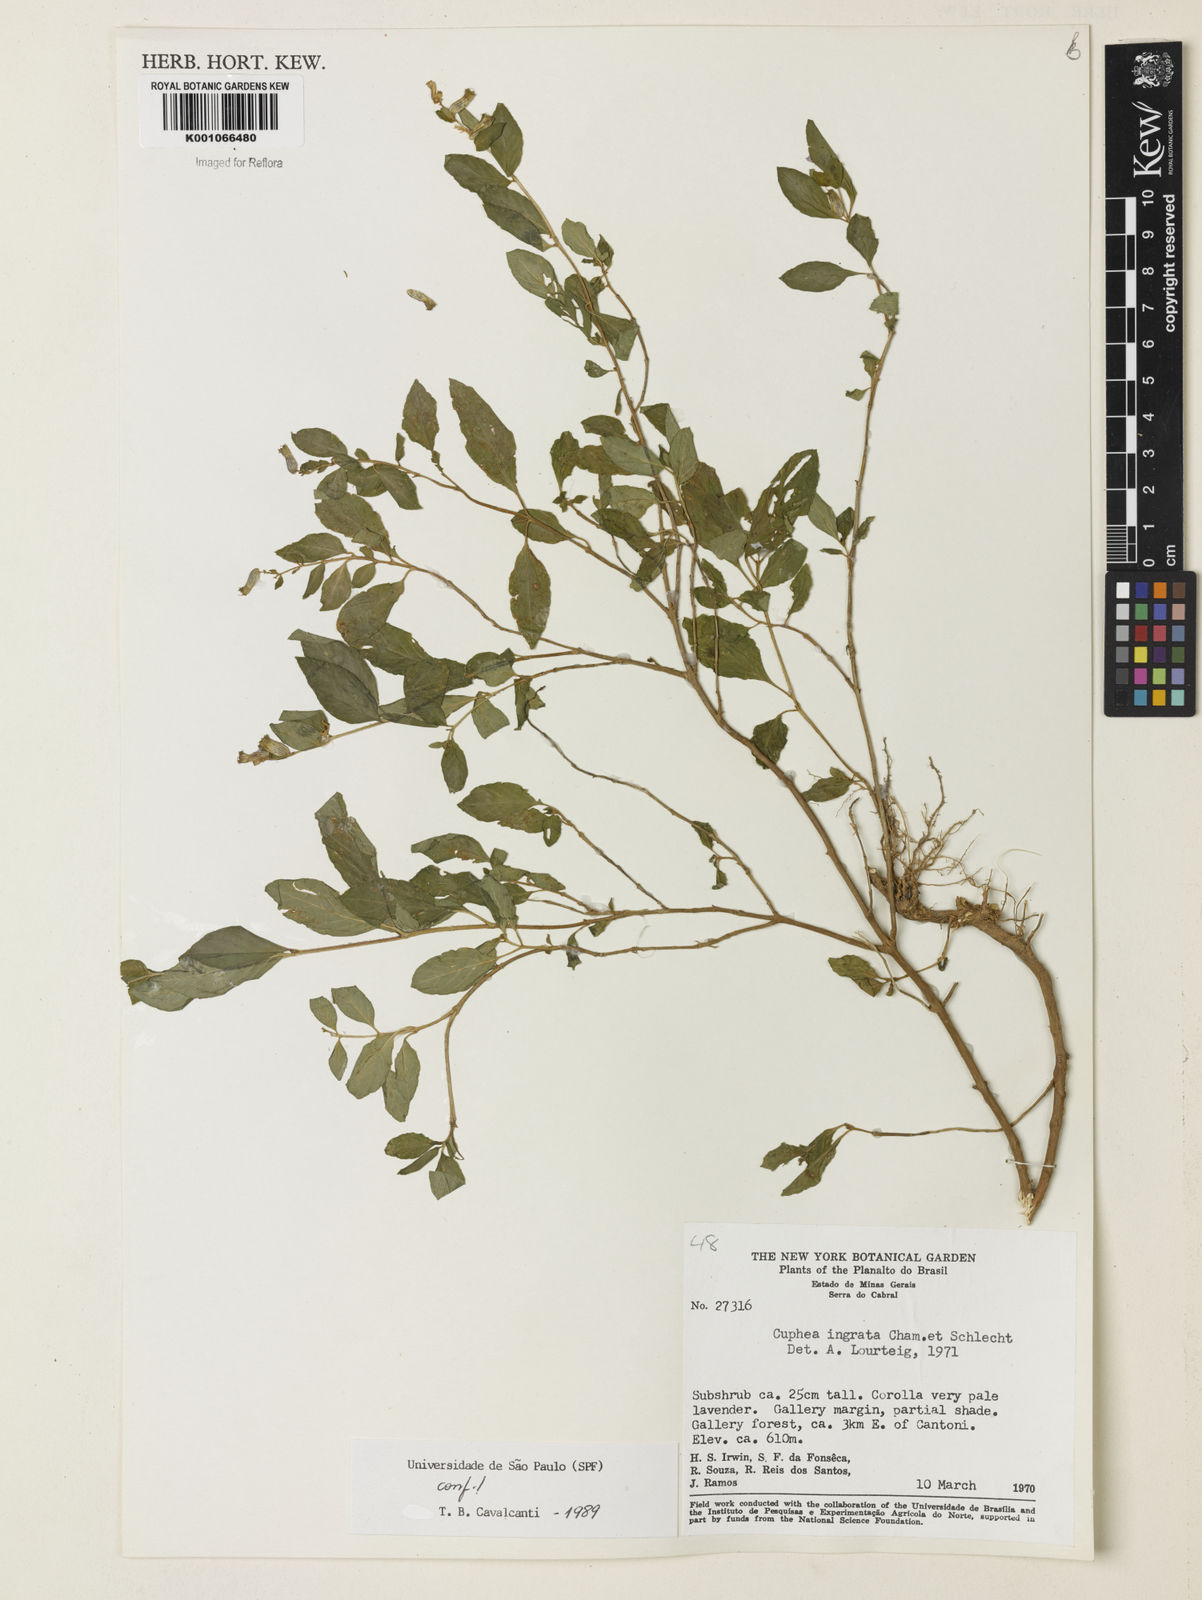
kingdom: Plantae
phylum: Tracheophyta
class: Magnoliopsida
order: Myrtales
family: Lythraceae
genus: Cuphea
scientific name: Cuphea ingrata
